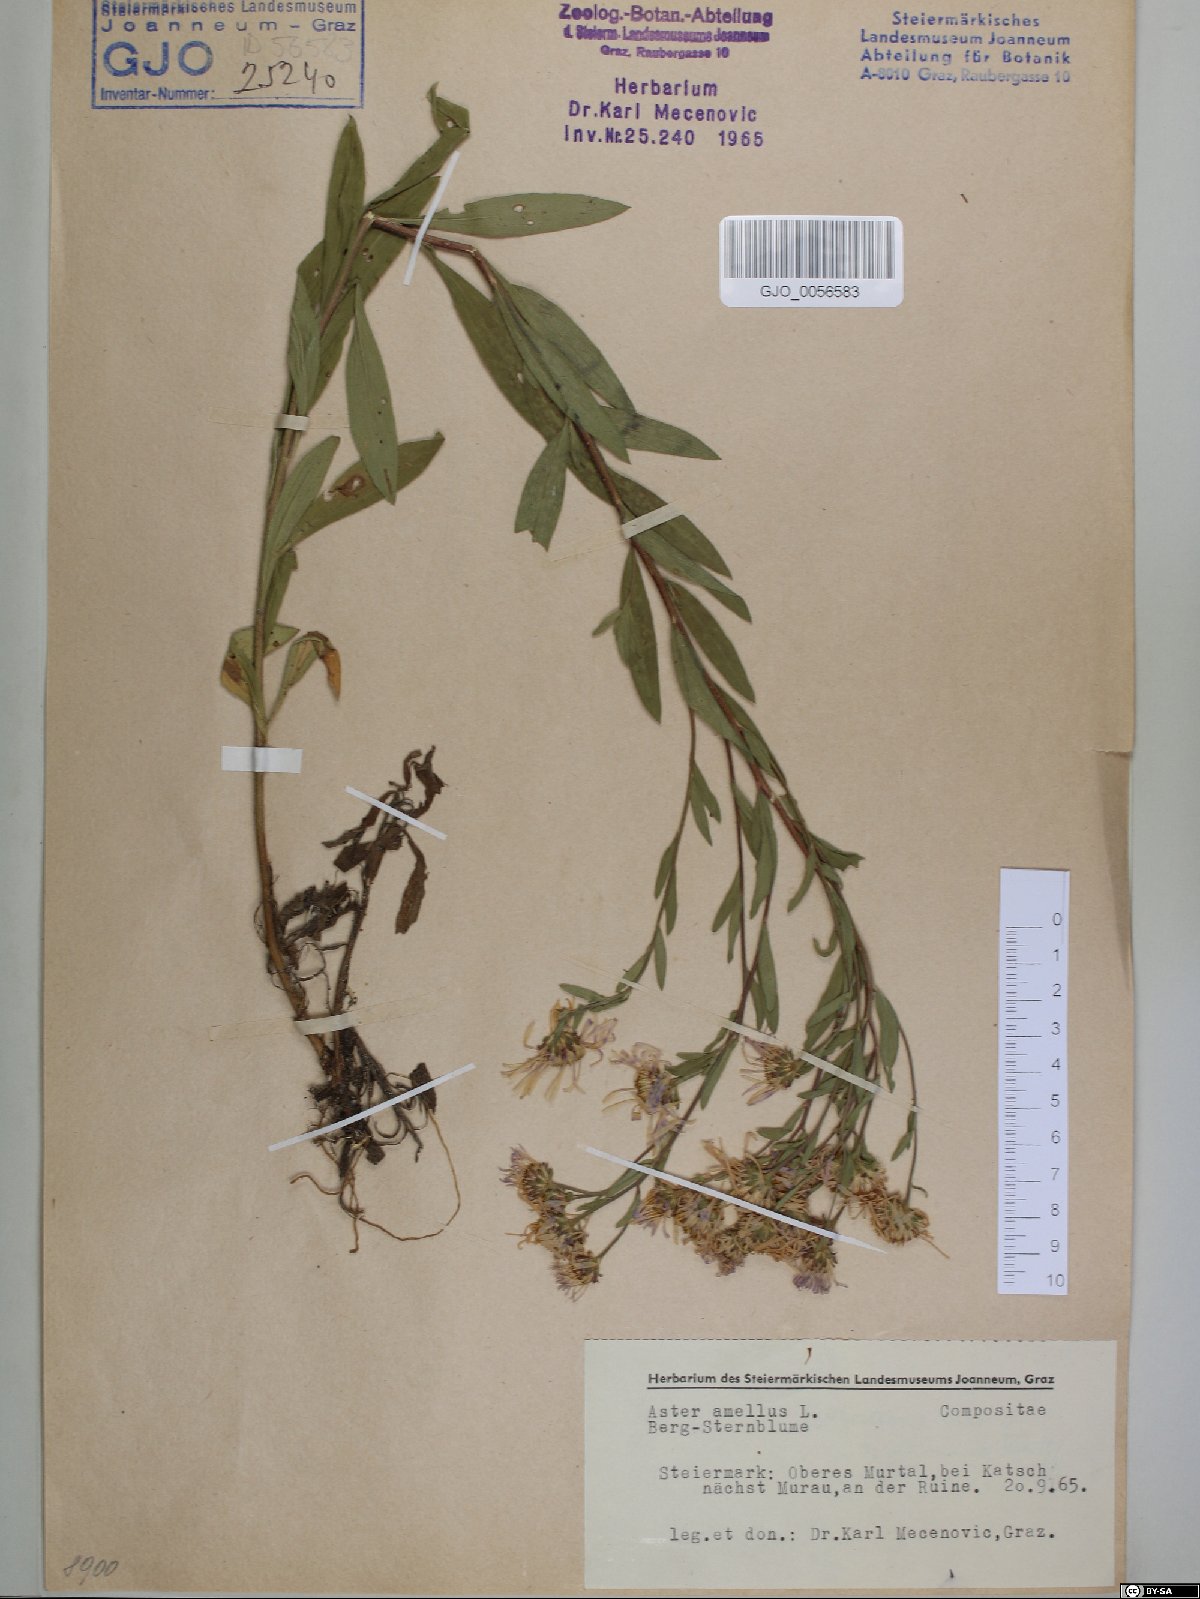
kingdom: Plantae
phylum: Tracheophyta
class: Magnoliopsida
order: Asterales
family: Asteraceae
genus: Aster
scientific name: Aster amellus
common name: European michaelmas daisy
